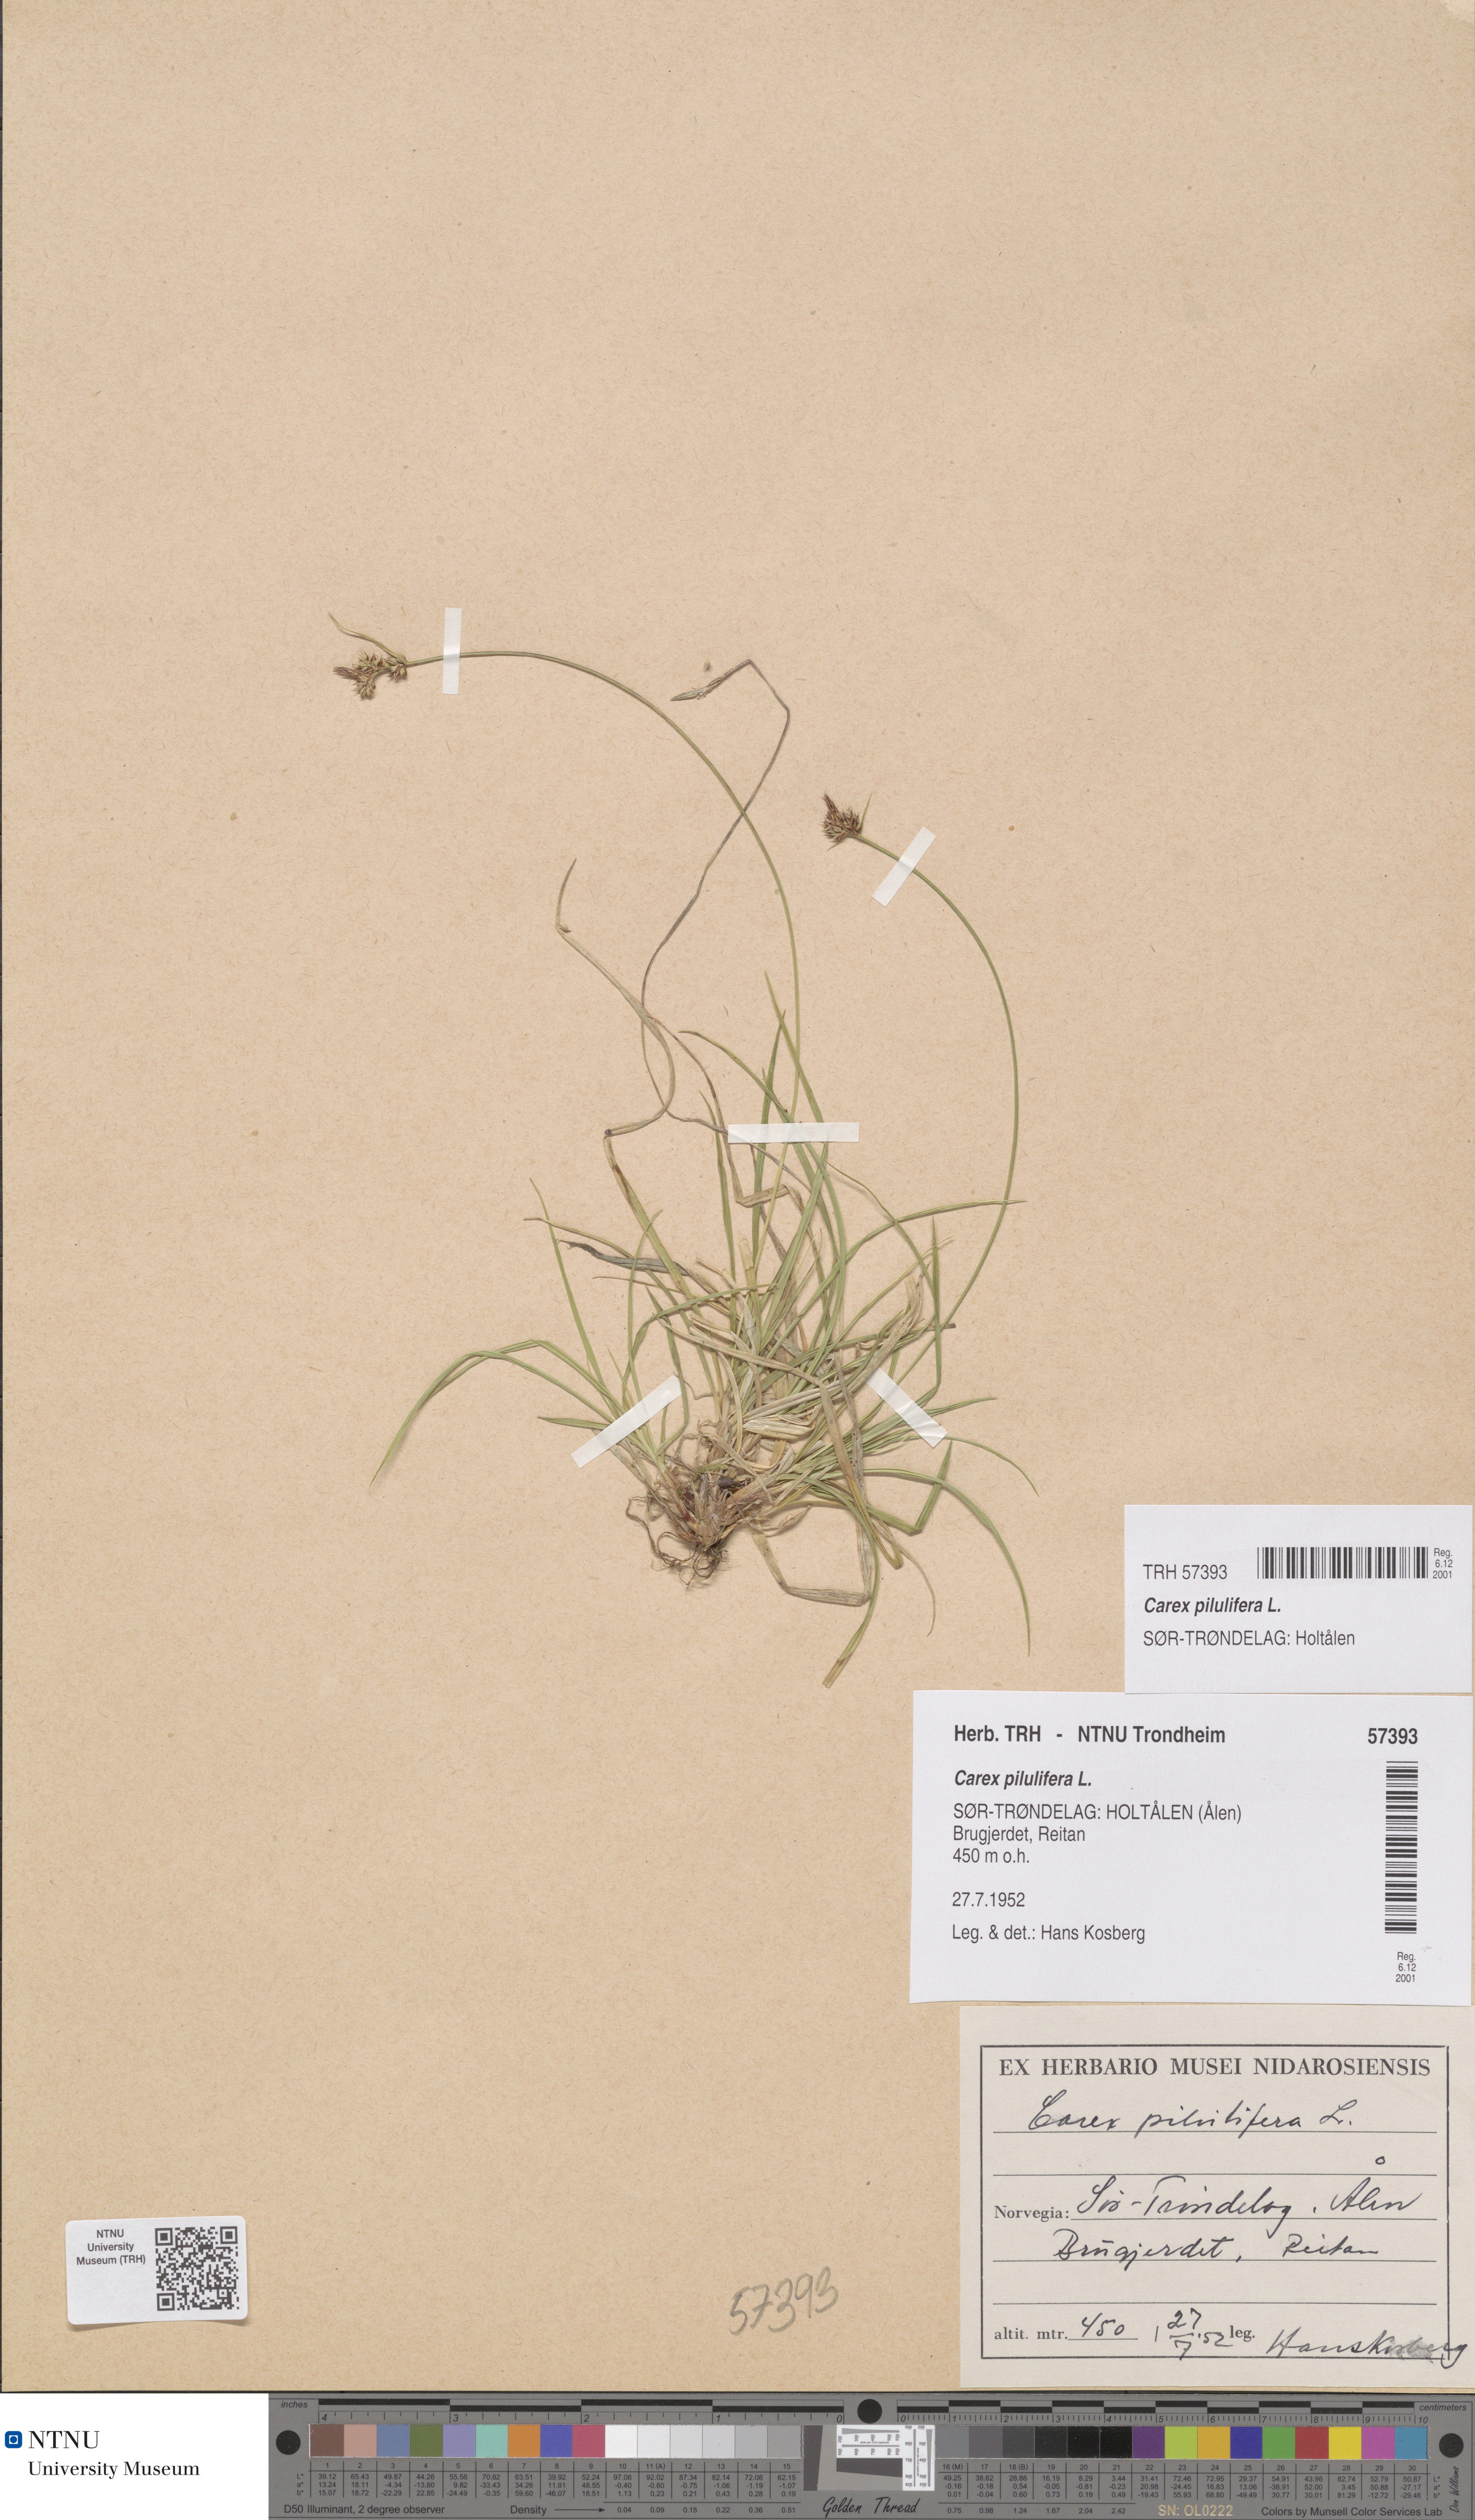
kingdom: Plantae
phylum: Tracheophyta
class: Liliopsida
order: Poales
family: Cyperaceae
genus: Carex
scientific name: Carex pilulifera
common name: Pill sedge
